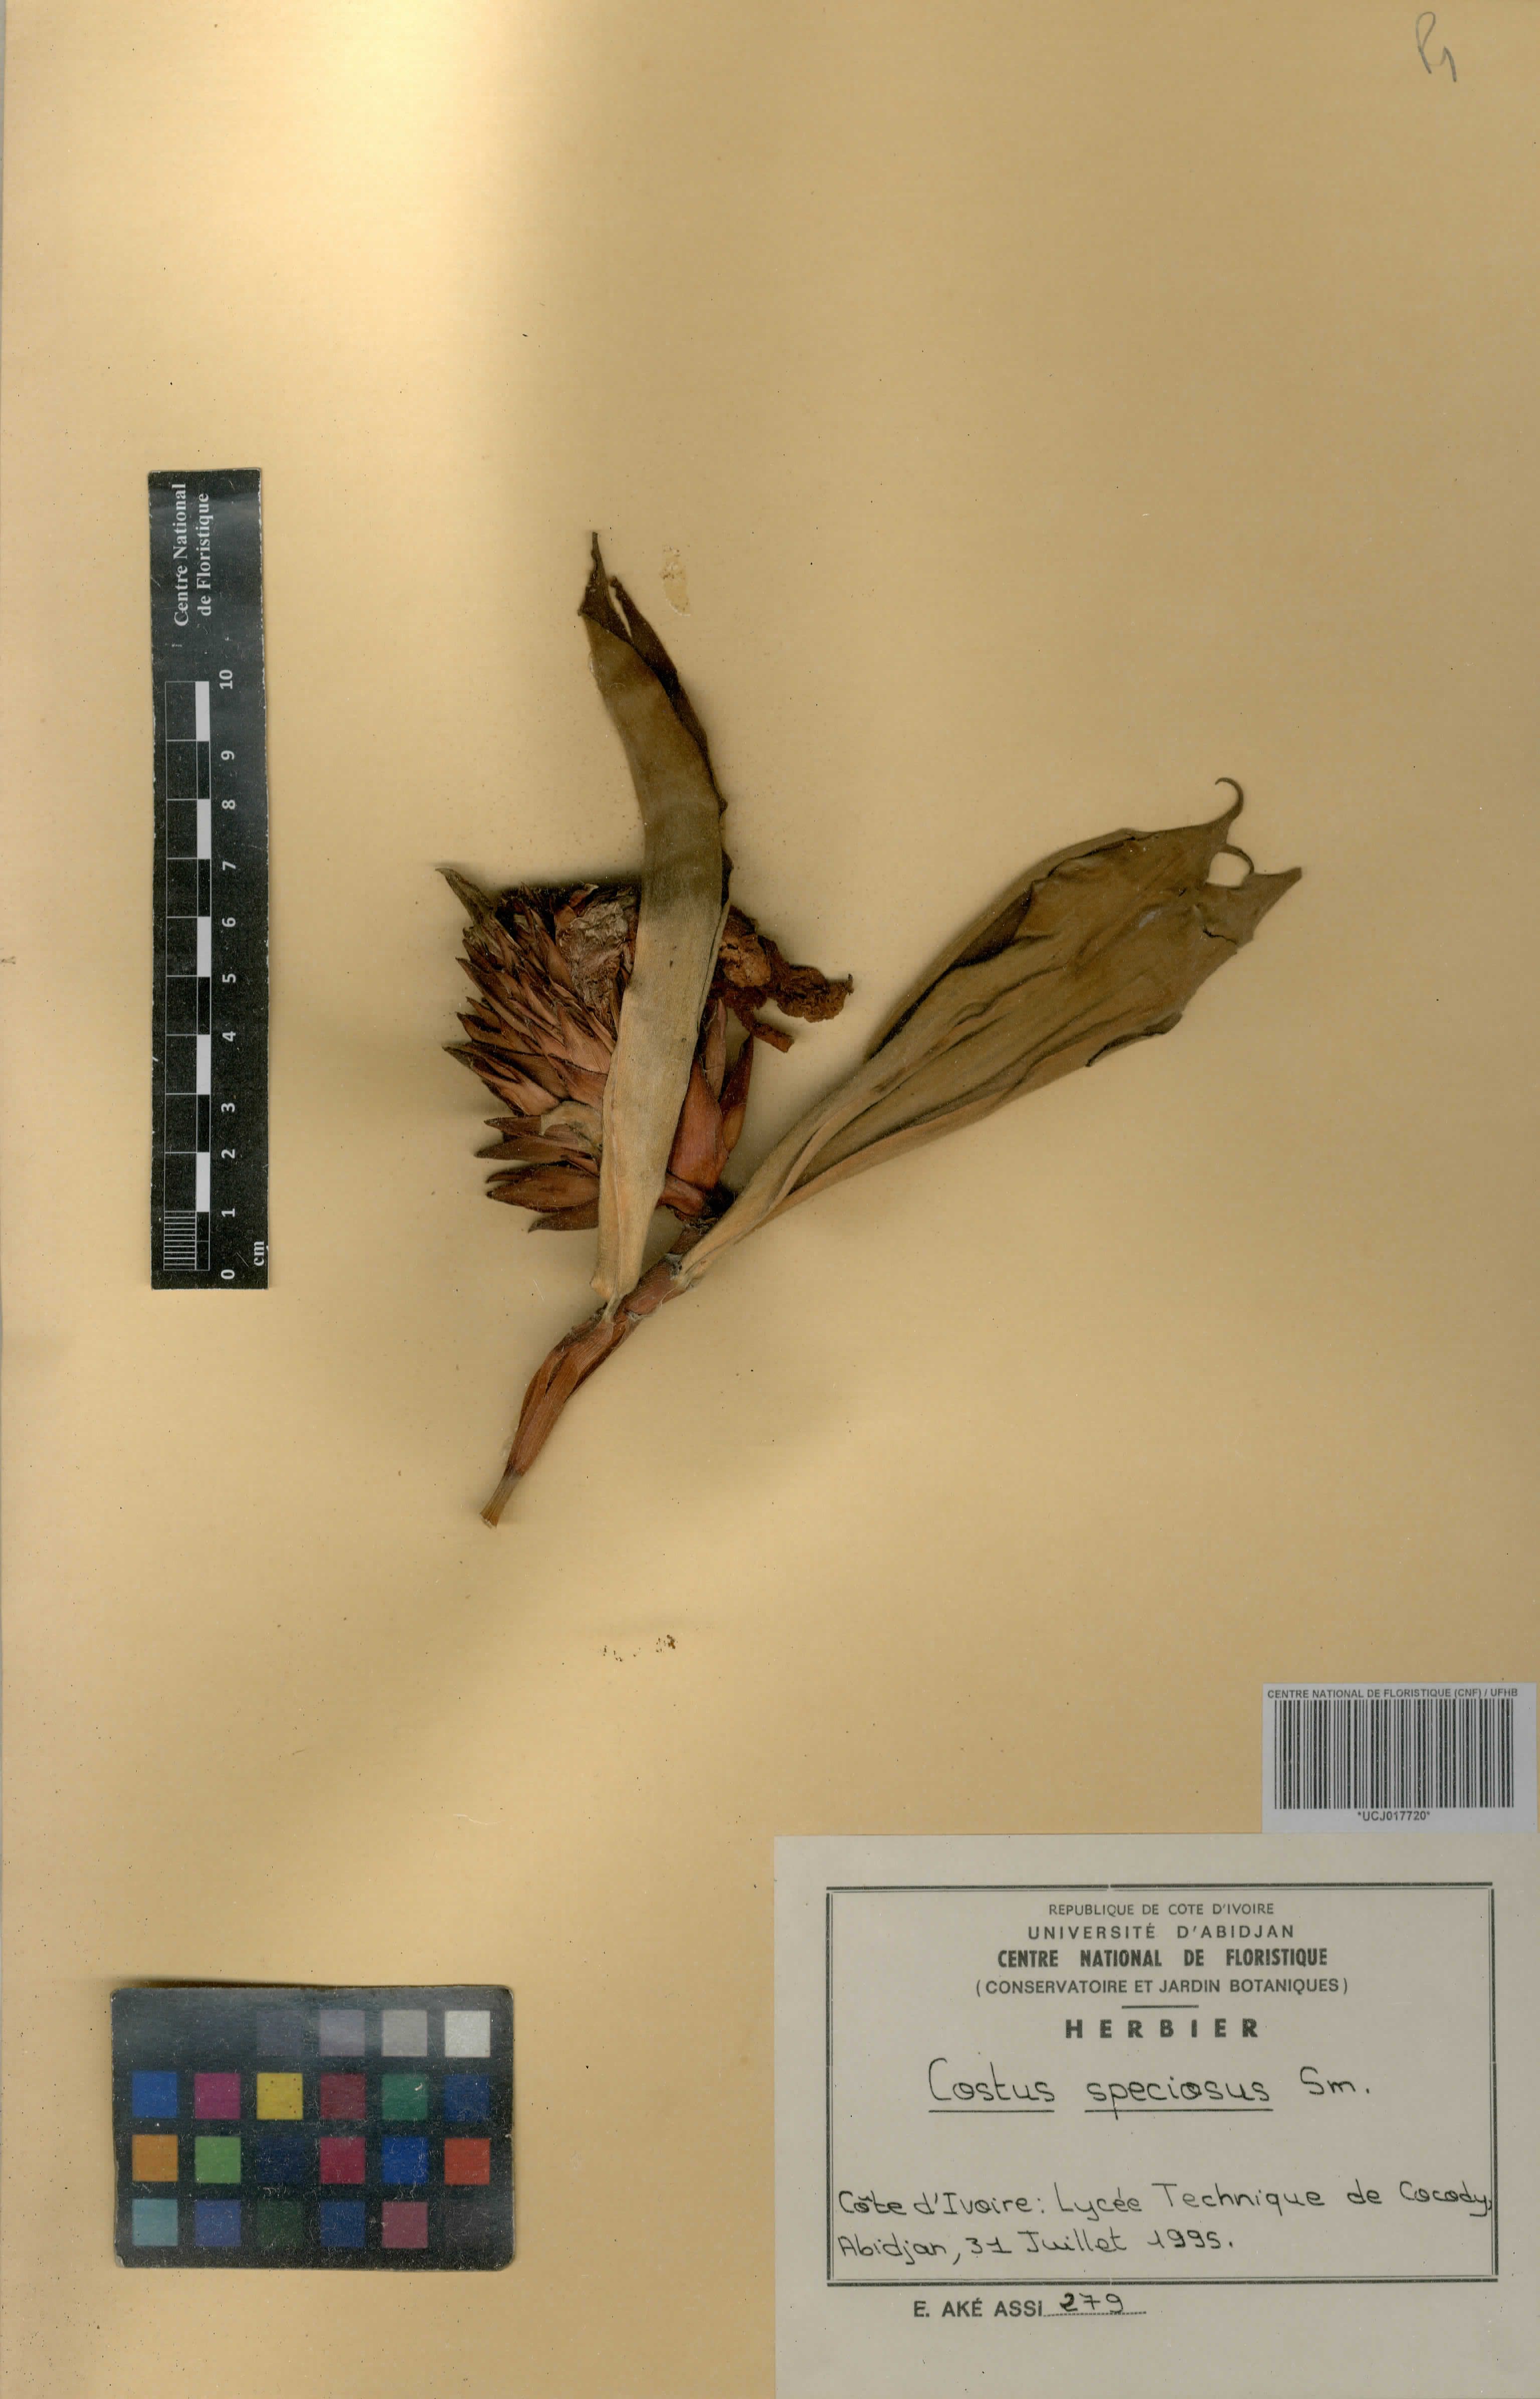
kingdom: Plantae
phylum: Tracheophyta
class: Liliopsida
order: Zingiberales
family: Costaceae
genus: Hellenia
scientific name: Hellenia speciosa
